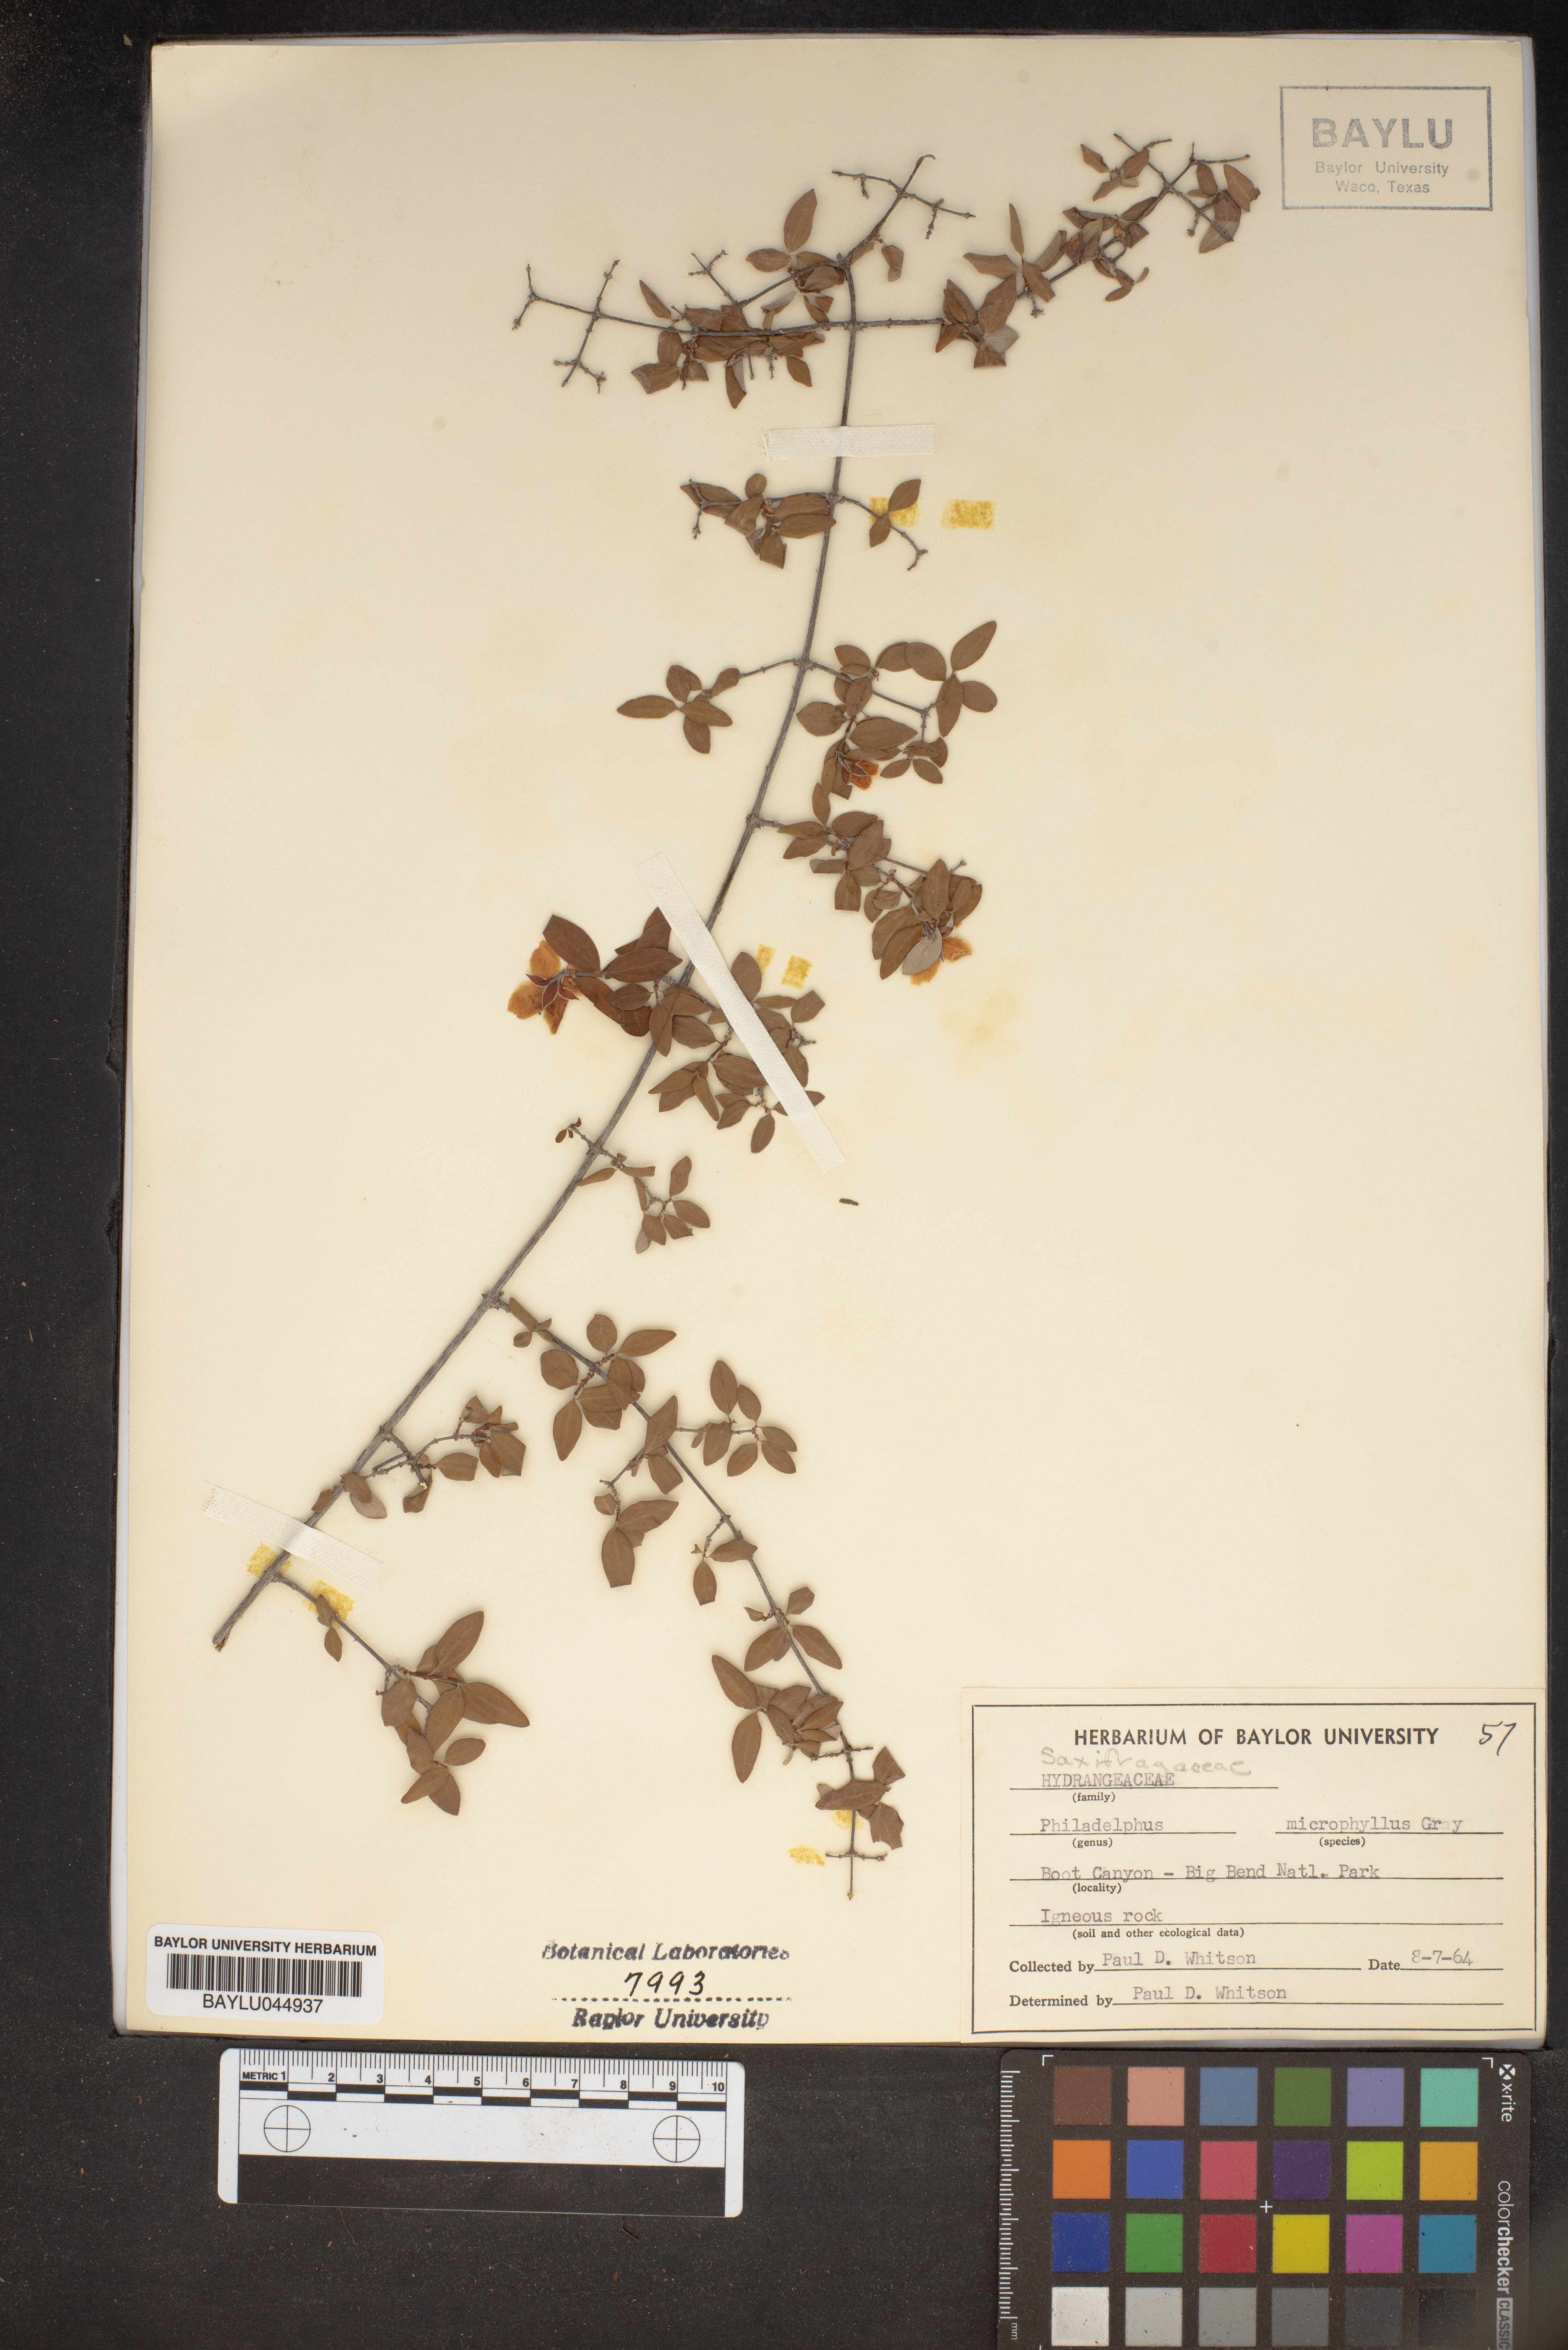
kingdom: Plantae
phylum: Tracheophyta
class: Magnoliopsida
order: Cornales
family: Hydrangeaceae
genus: Philadelphus
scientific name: Philadelphus microphyllus
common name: Desert mock orange
